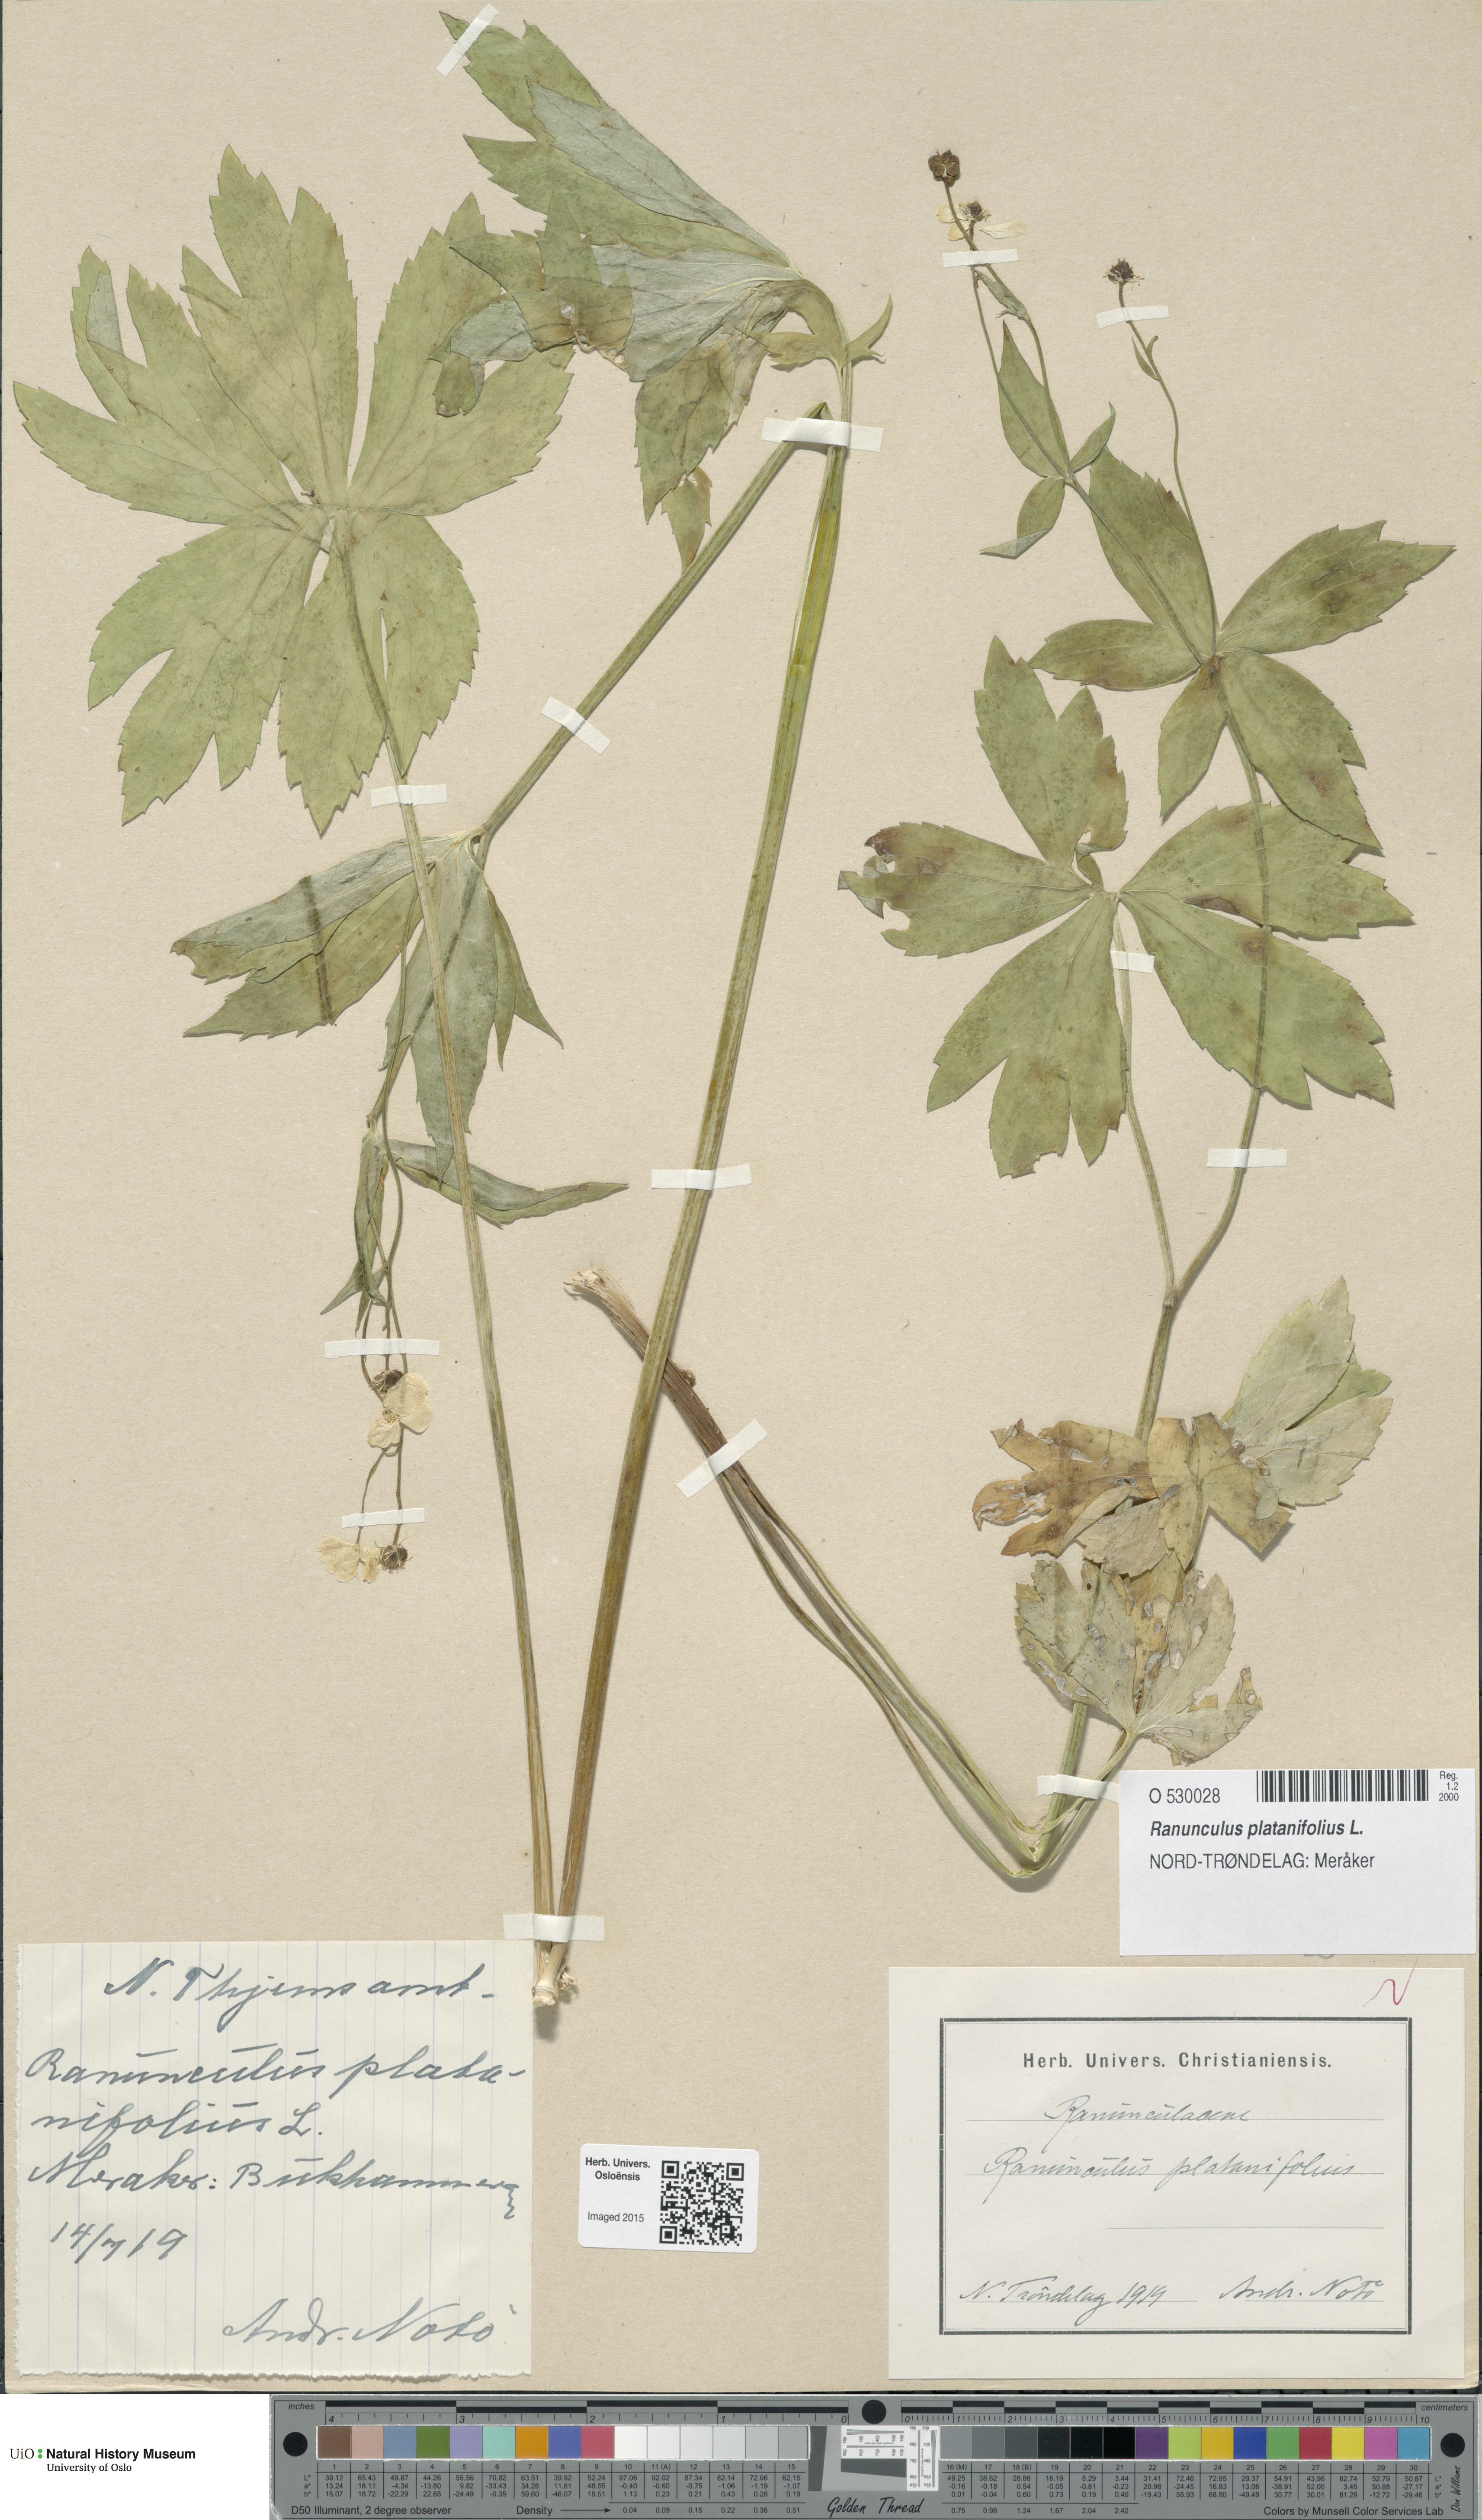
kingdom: Plantae
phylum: Tracheophyta
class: Magnoliopsida
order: Ranunculales
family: Ranunculaceae
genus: Ranunculus
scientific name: Ranunculus platanifolius
